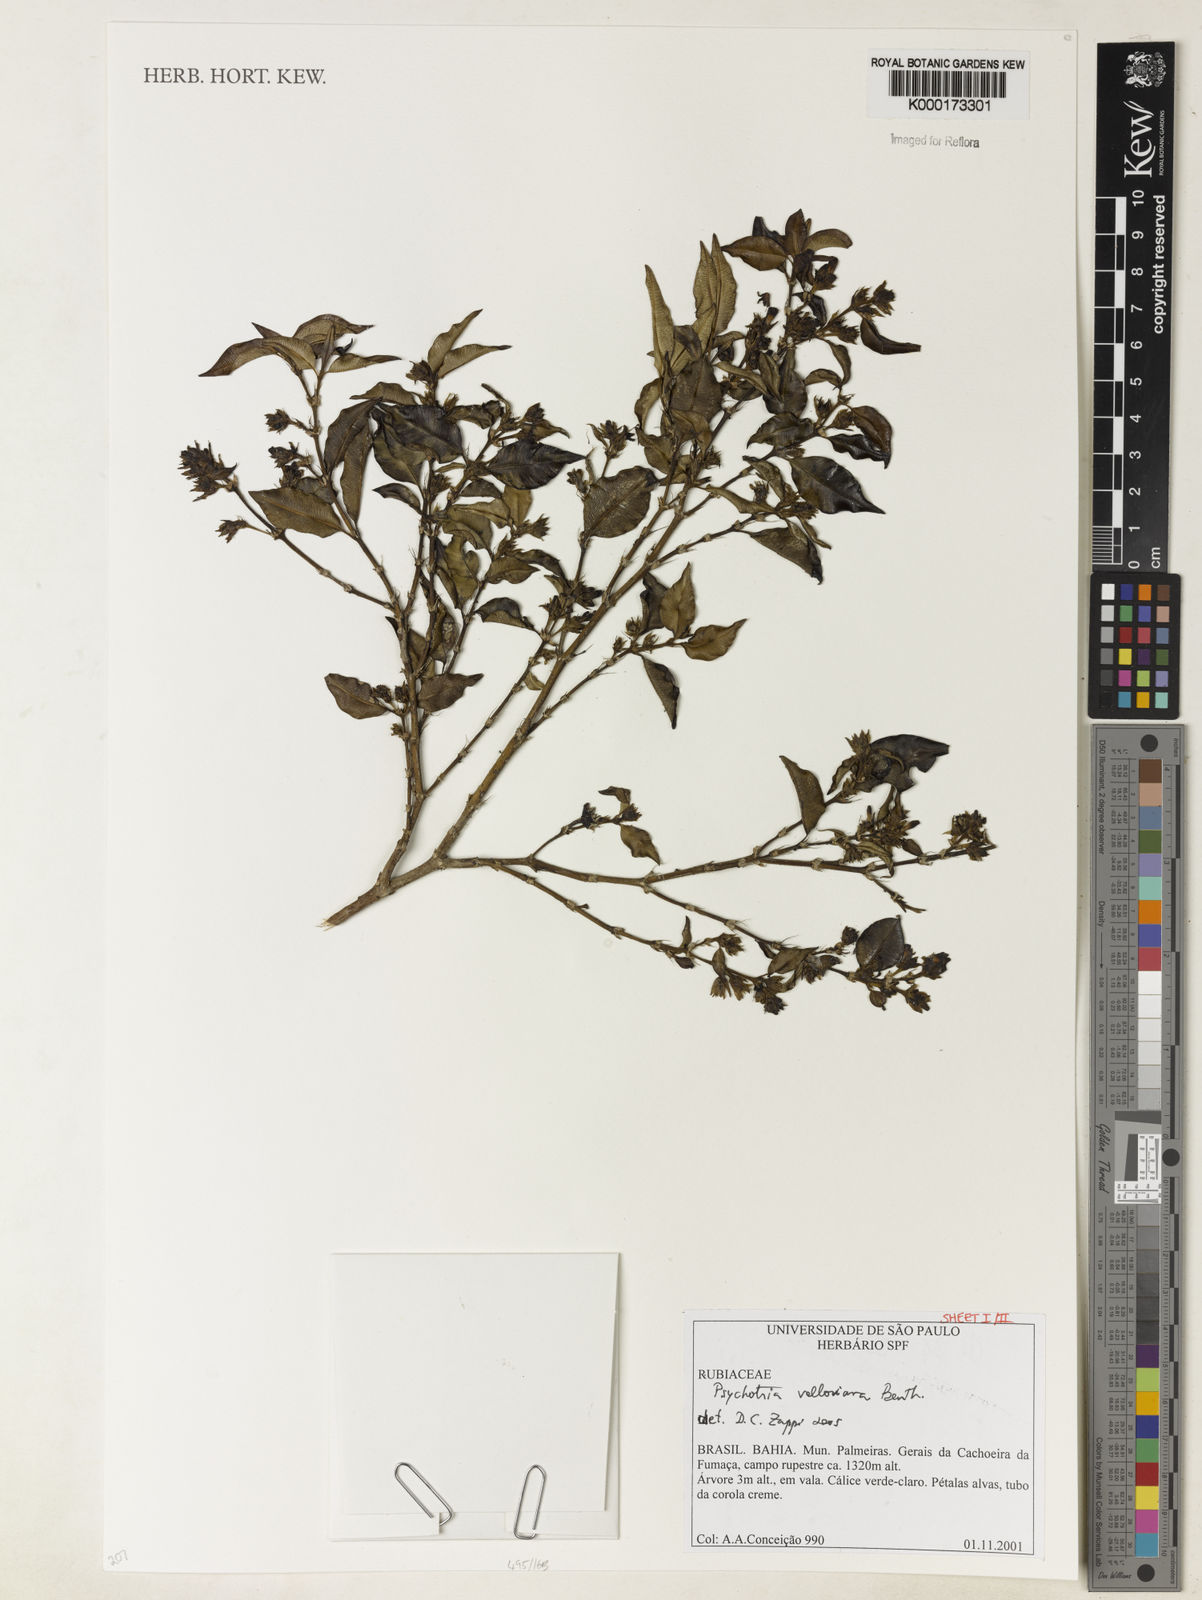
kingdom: Plantae
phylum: Tracheophyta
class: Magnoliopsida
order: Gentianales
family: Rubiaceae
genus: Palicourea
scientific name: Palicourea sessilis
